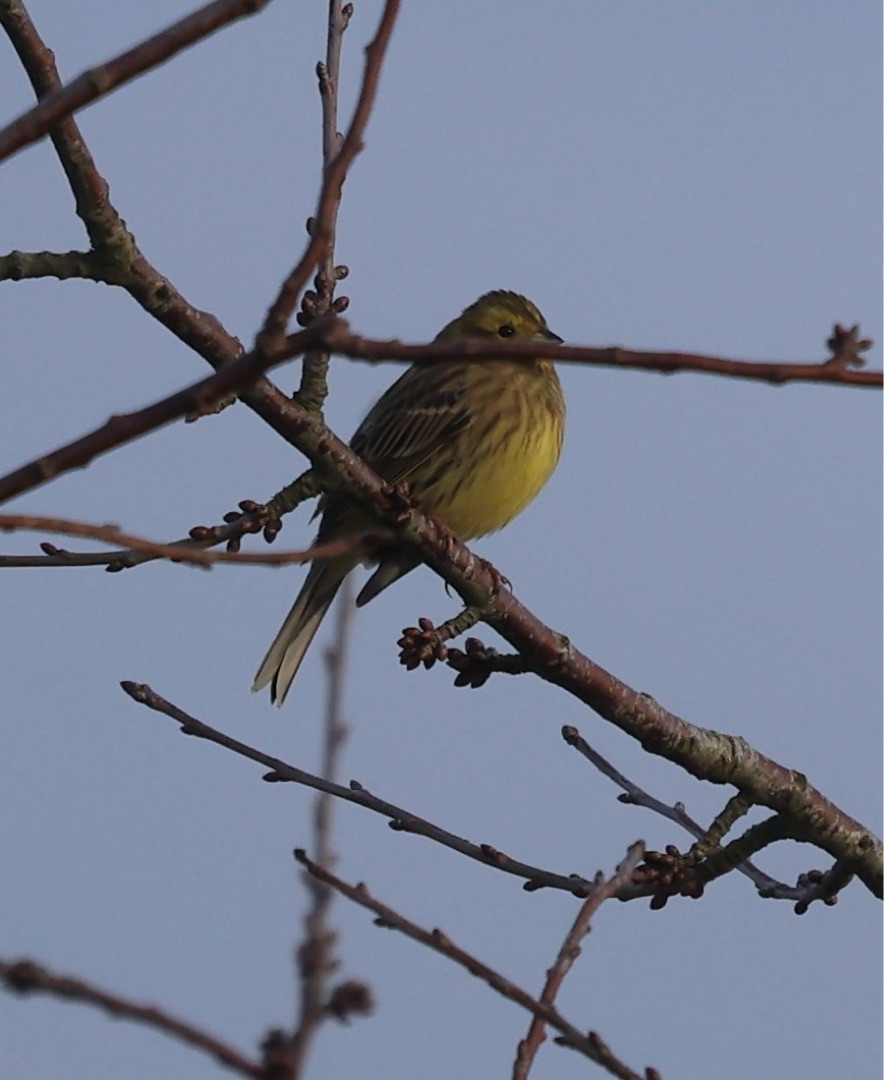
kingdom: Animalia
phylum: Chordata
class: Aves
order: Passeriformes
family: Emberizidae
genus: Emberiza
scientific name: Emberiza citrinella
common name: Gulspurv
